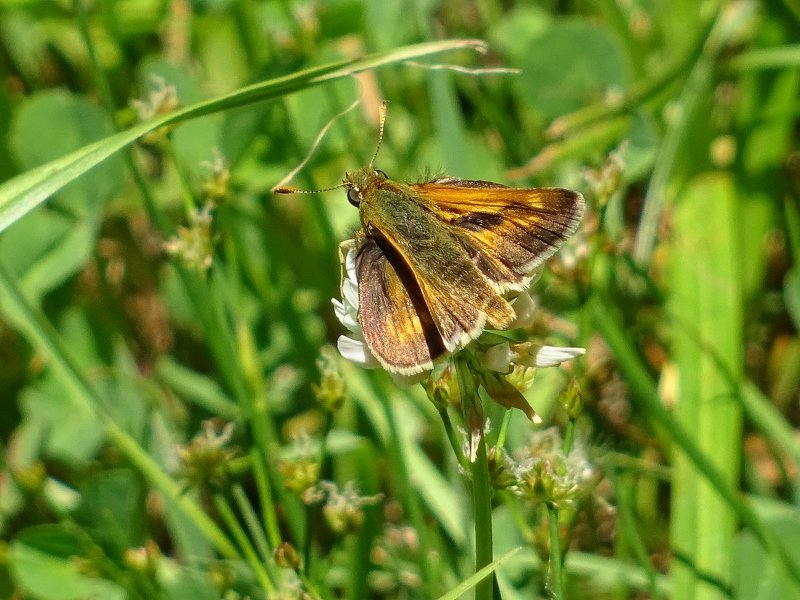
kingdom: Animalia
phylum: Arthropoda
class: Insecta
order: Lepidoptera
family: Hesperiidae
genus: Polites
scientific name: Polites
